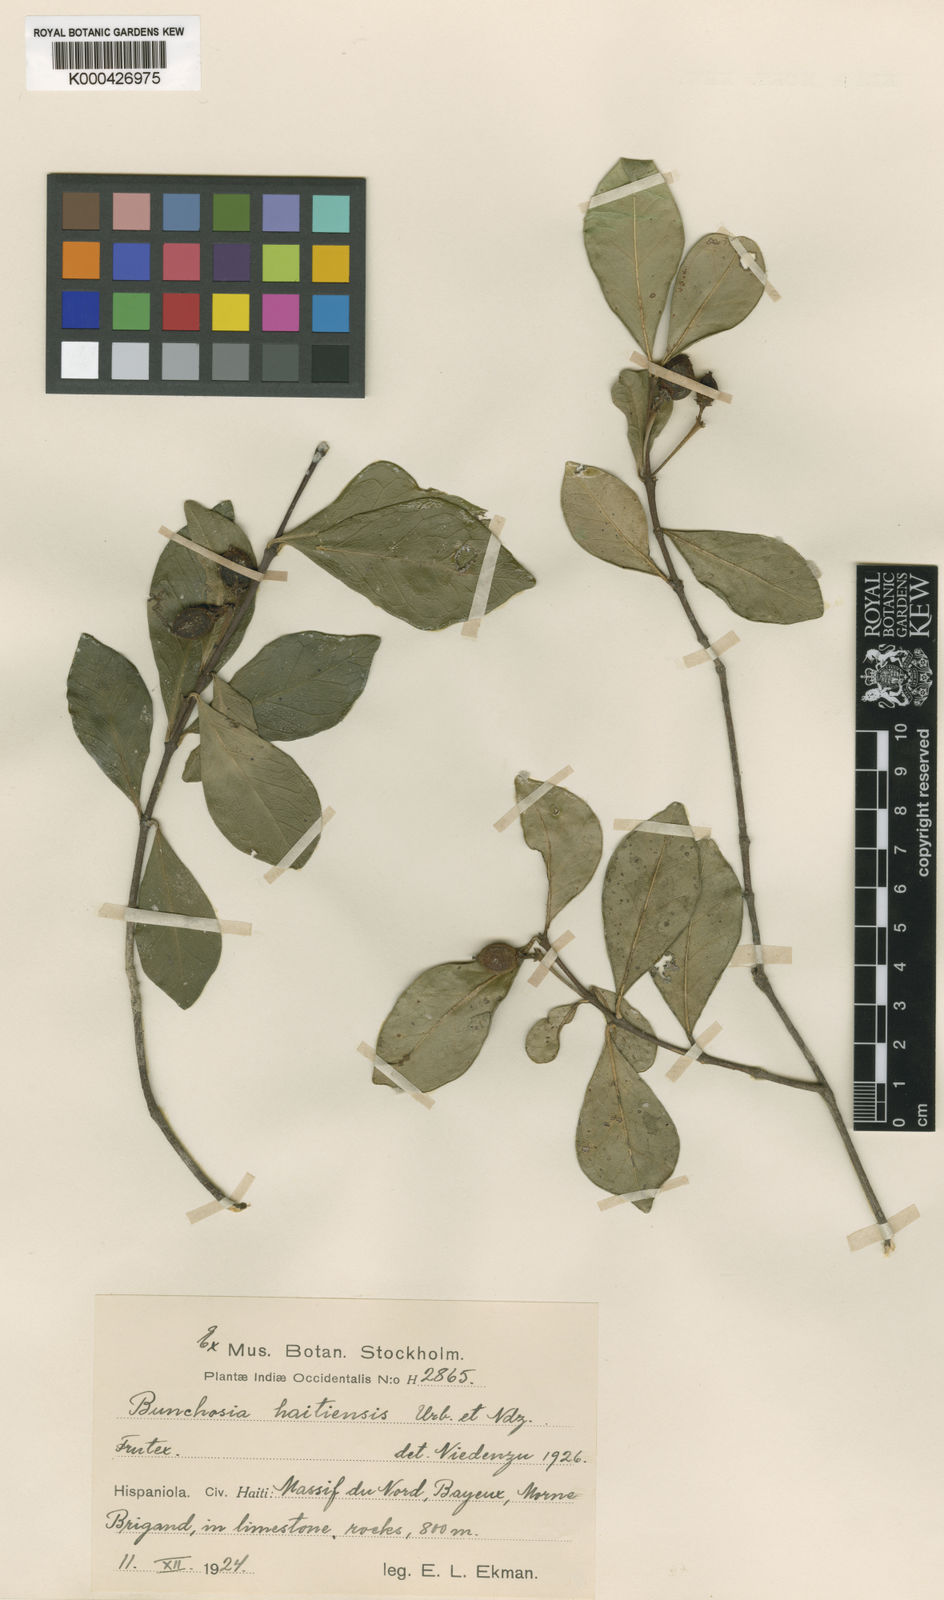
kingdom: Plantae
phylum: Tracheophyta
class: Magnoliopsida
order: Malpighiales
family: Malpighiaceae
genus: Bunchosia
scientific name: Bunchosia haitiensis
